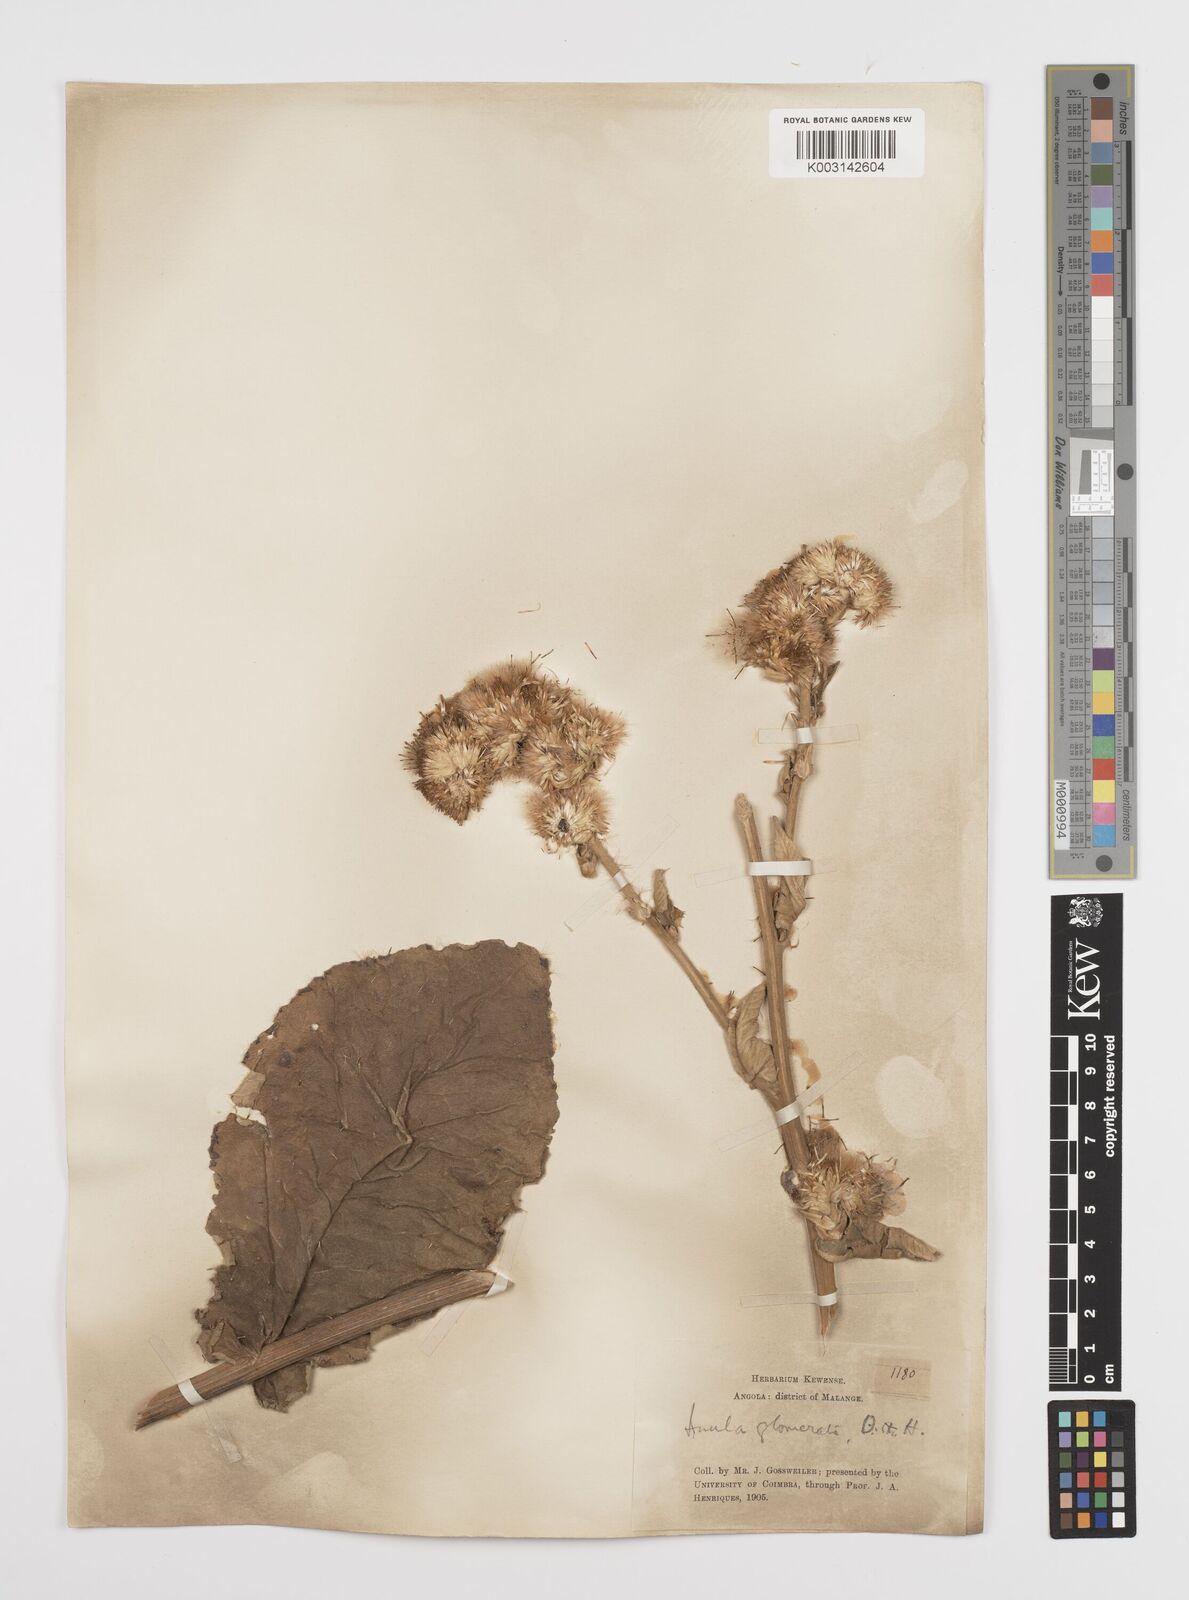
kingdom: Plantae
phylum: Tracheophyta
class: Magnoliopsida
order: Asterales
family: Asteraceae
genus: Inula
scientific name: Inula glomerata
